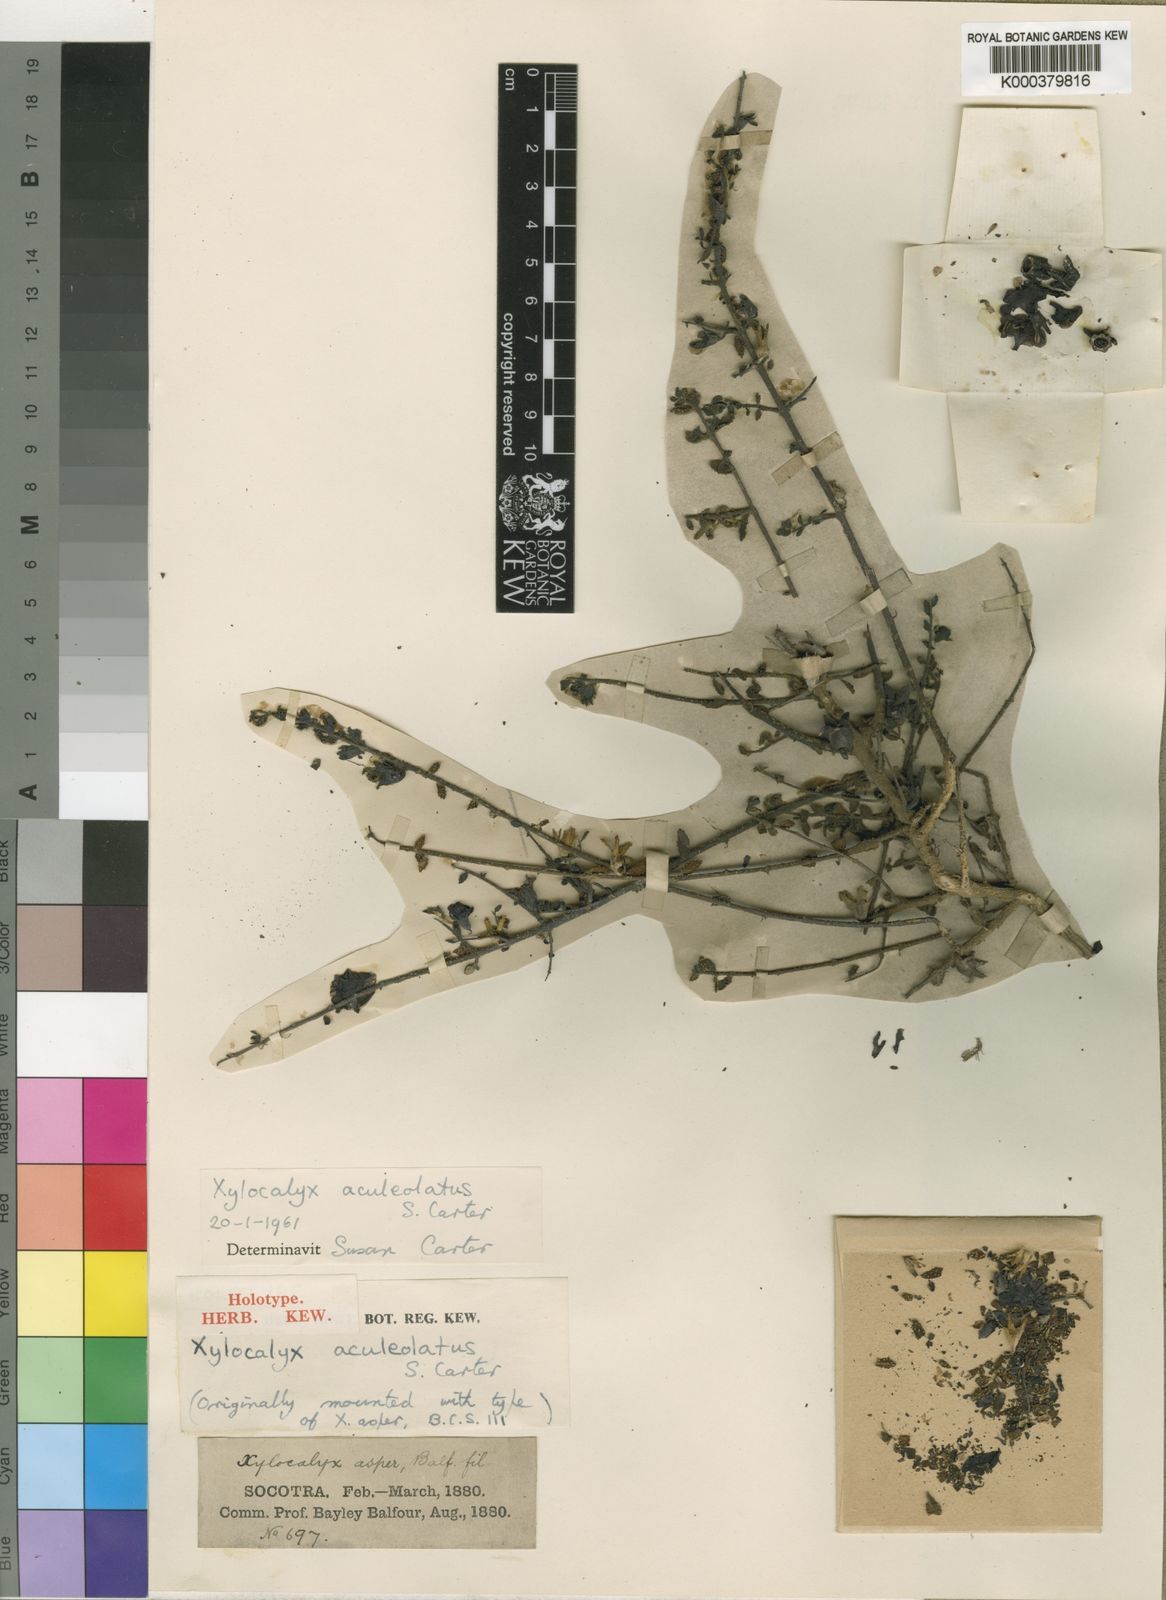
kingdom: Plantae
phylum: Tracheophyta
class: Magnoliopsida
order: Lamiales
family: Orobanchaceae
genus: Xylocalyx
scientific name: Xylocalyx aculeolatus
